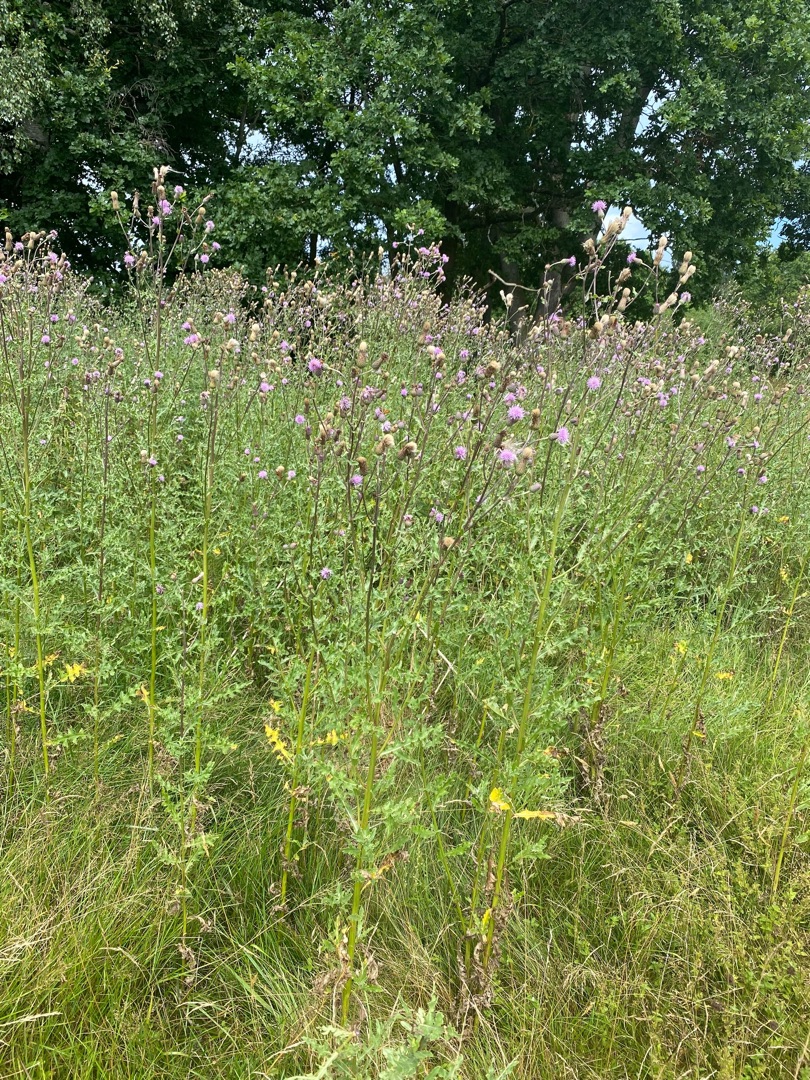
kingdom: Plantae
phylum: Tracheophyta
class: Magnoliopsida
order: Asterales
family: Asteraceae
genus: Cirsium
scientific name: Cirsium arvense
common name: Ager-tidsel
